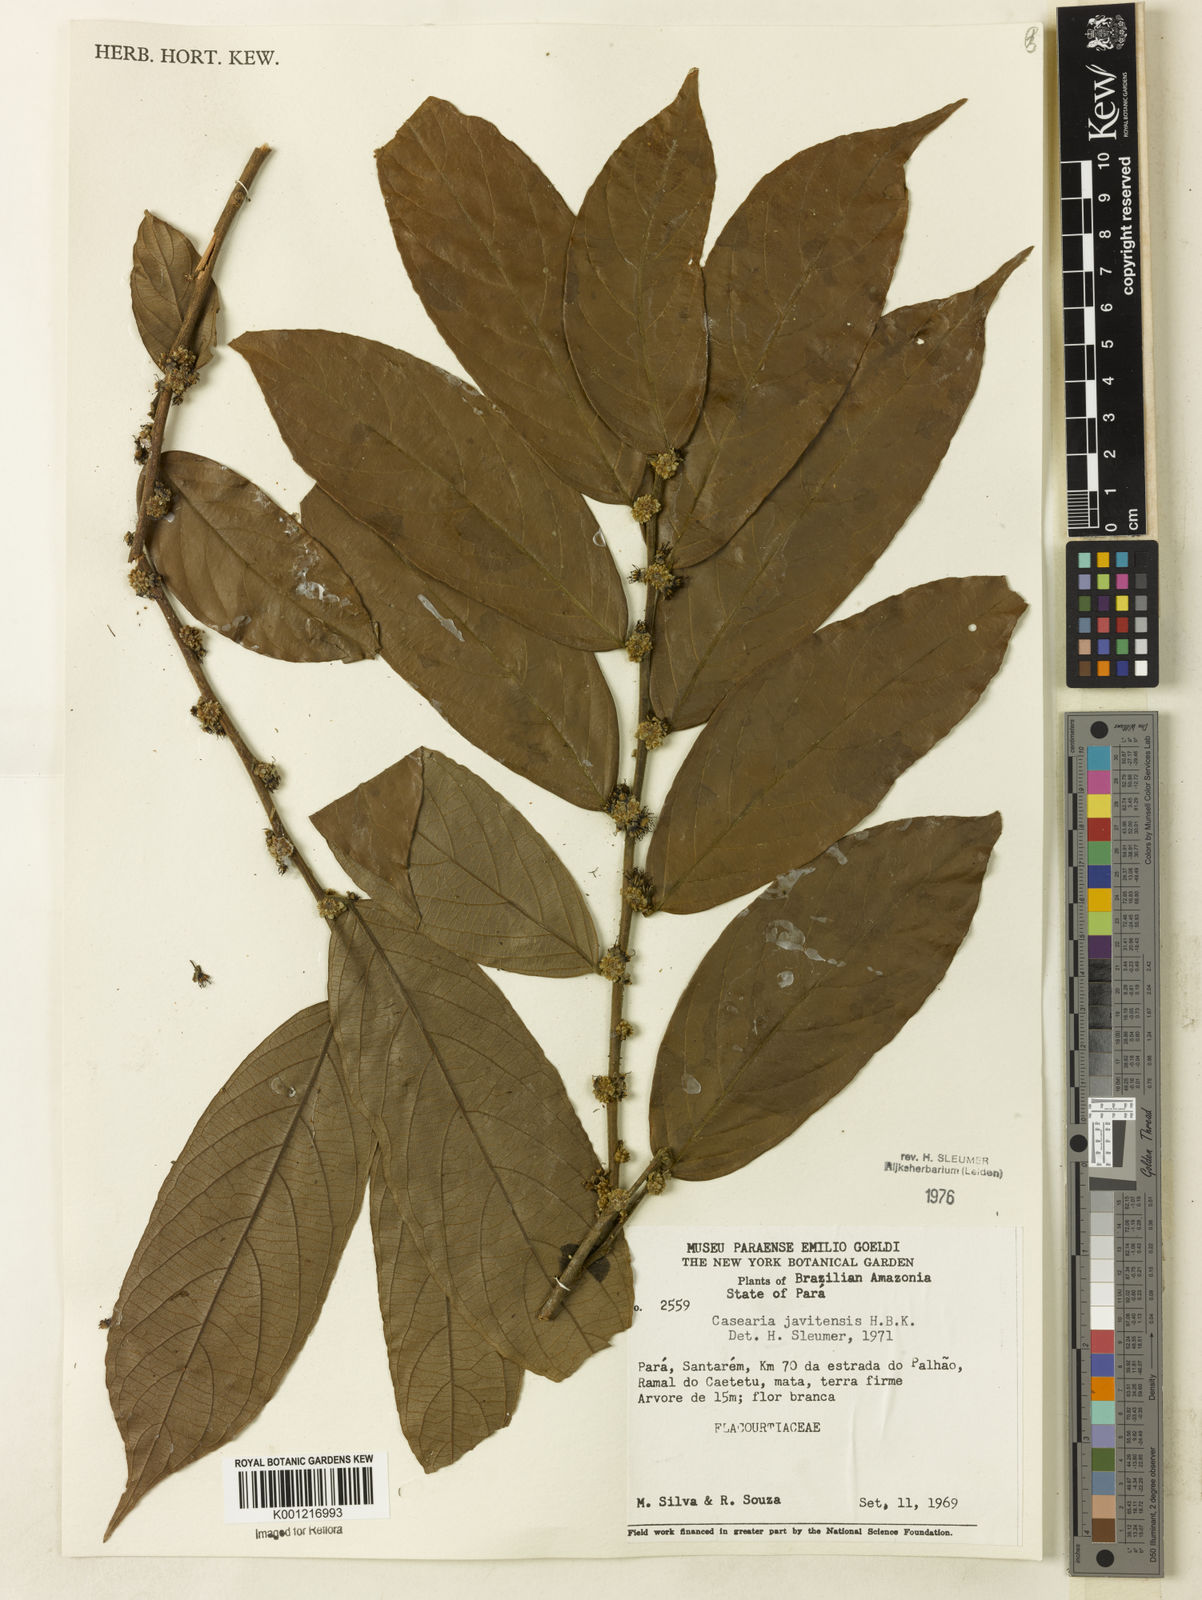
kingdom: Plantae
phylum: Tracheophyta
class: Magnoliopsida
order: Malpighiales
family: Salicaceae
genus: Piparea
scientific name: Piparea multiflora
